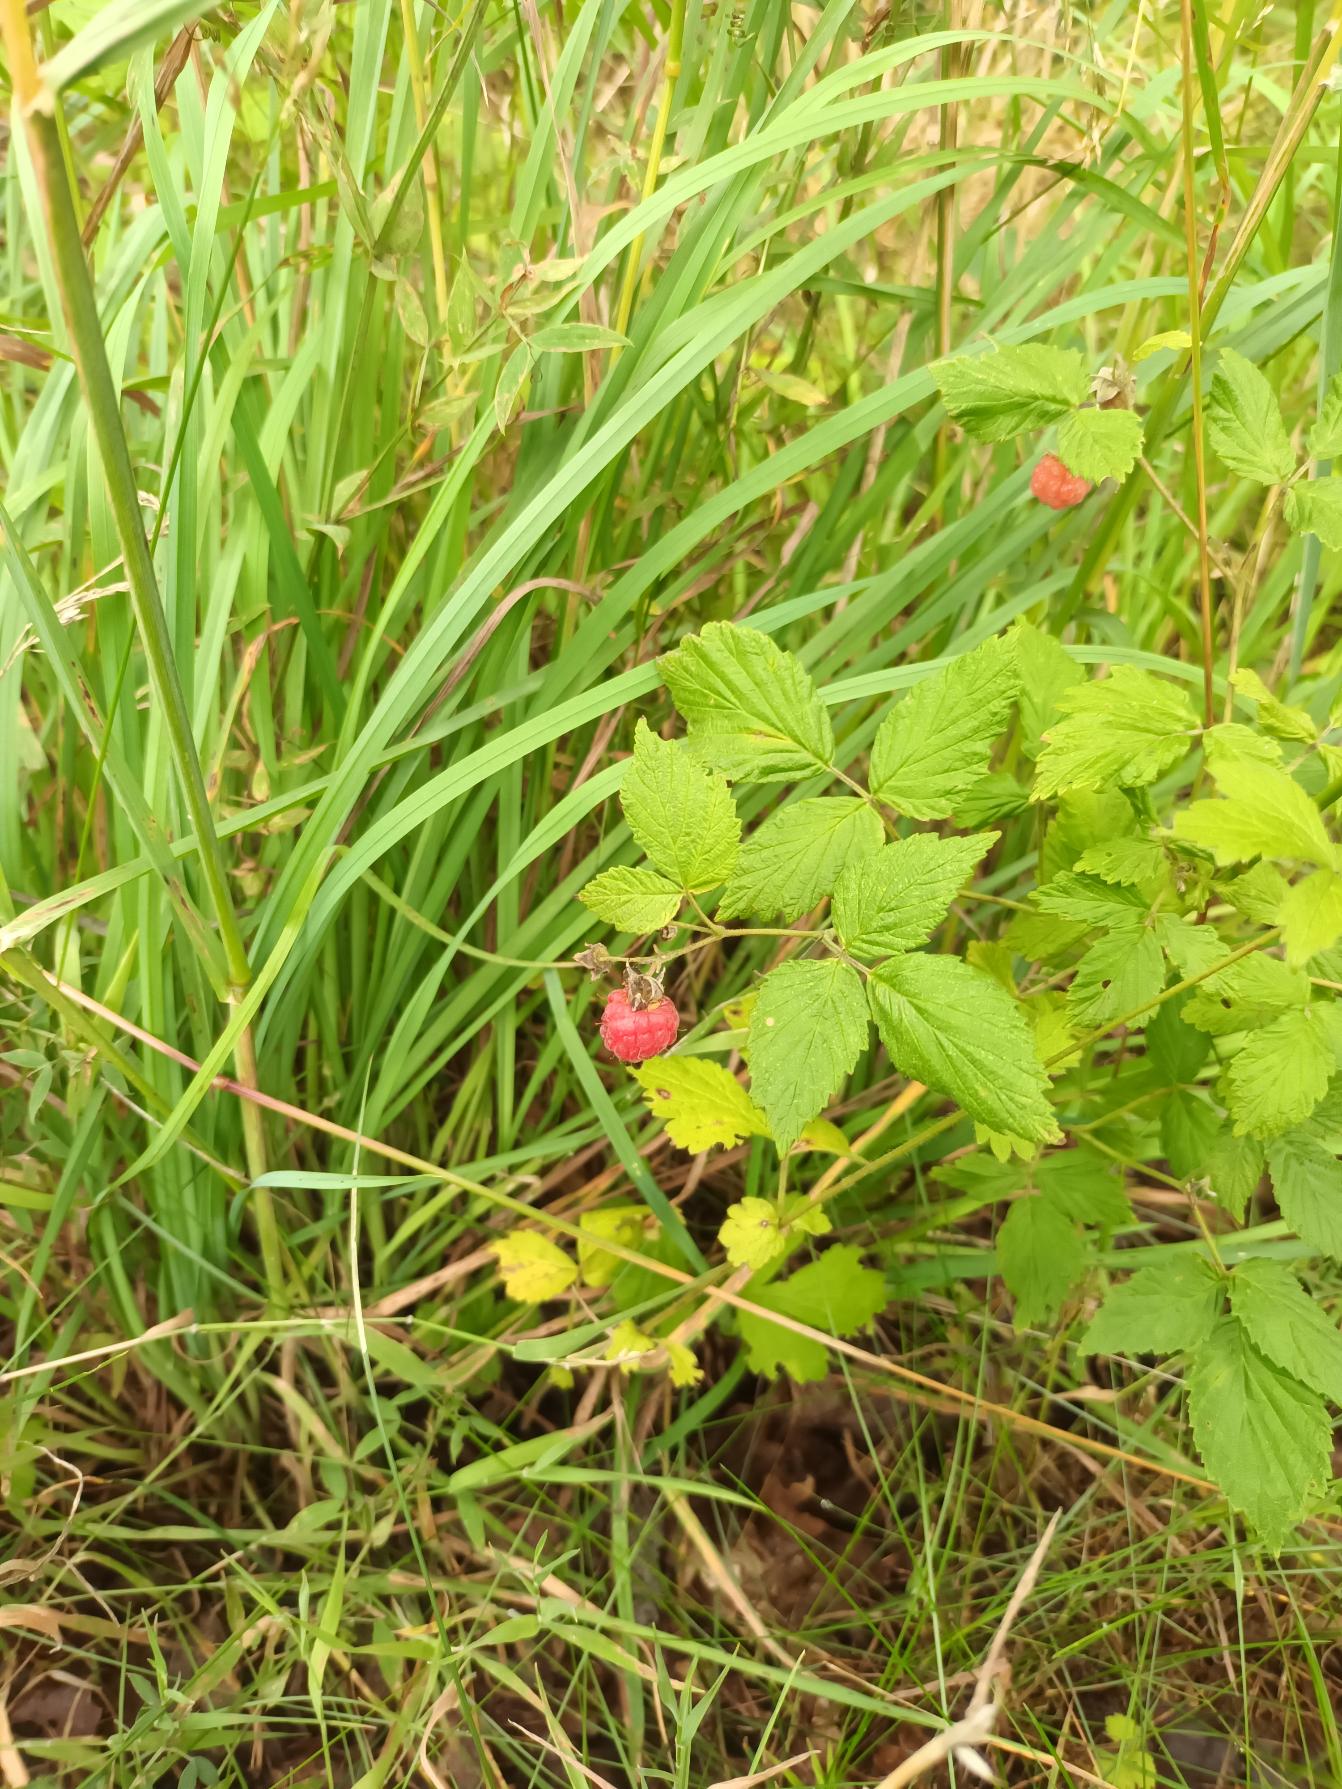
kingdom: Plantae
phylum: Tracheophyta
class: Magnoliopsida
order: Rosales
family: Rosaceae
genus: Rubus
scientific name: Rubus idaeus
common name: Hindbær
